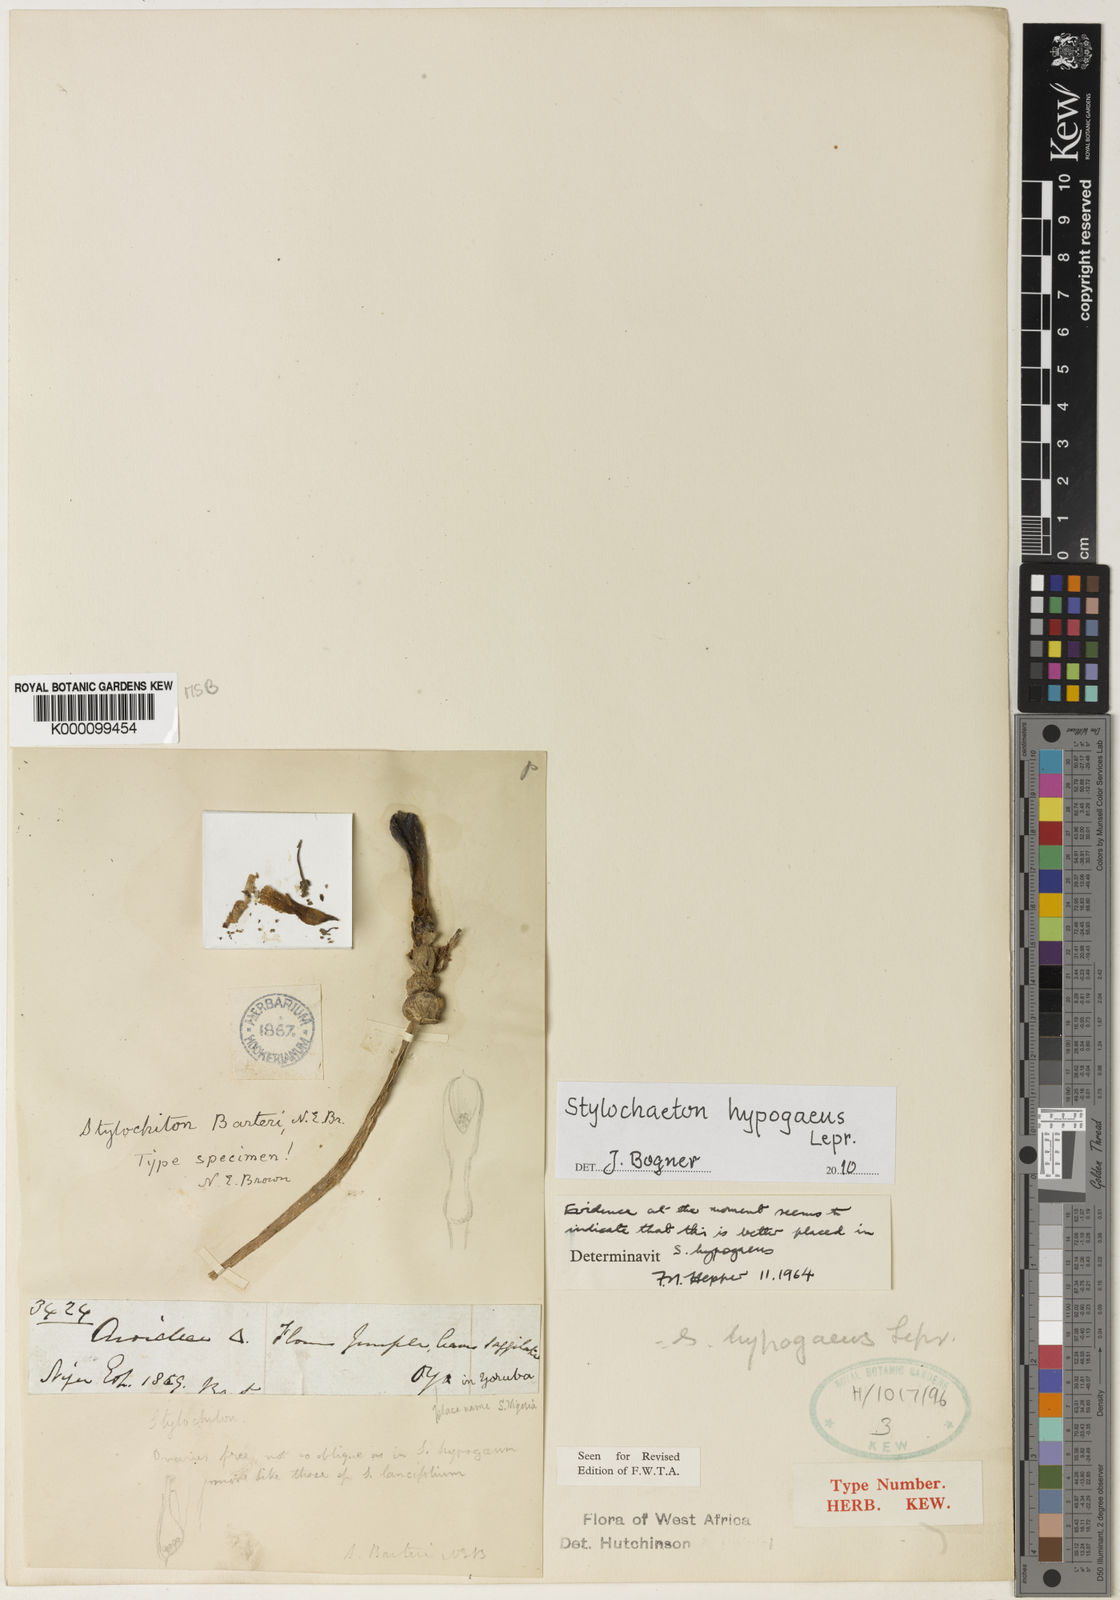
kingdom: Plantae
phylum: Tracheophyta
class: Liliopsida
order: Alismatales
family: Araceae
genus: Stylochaeton
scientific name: Stylochaeton
